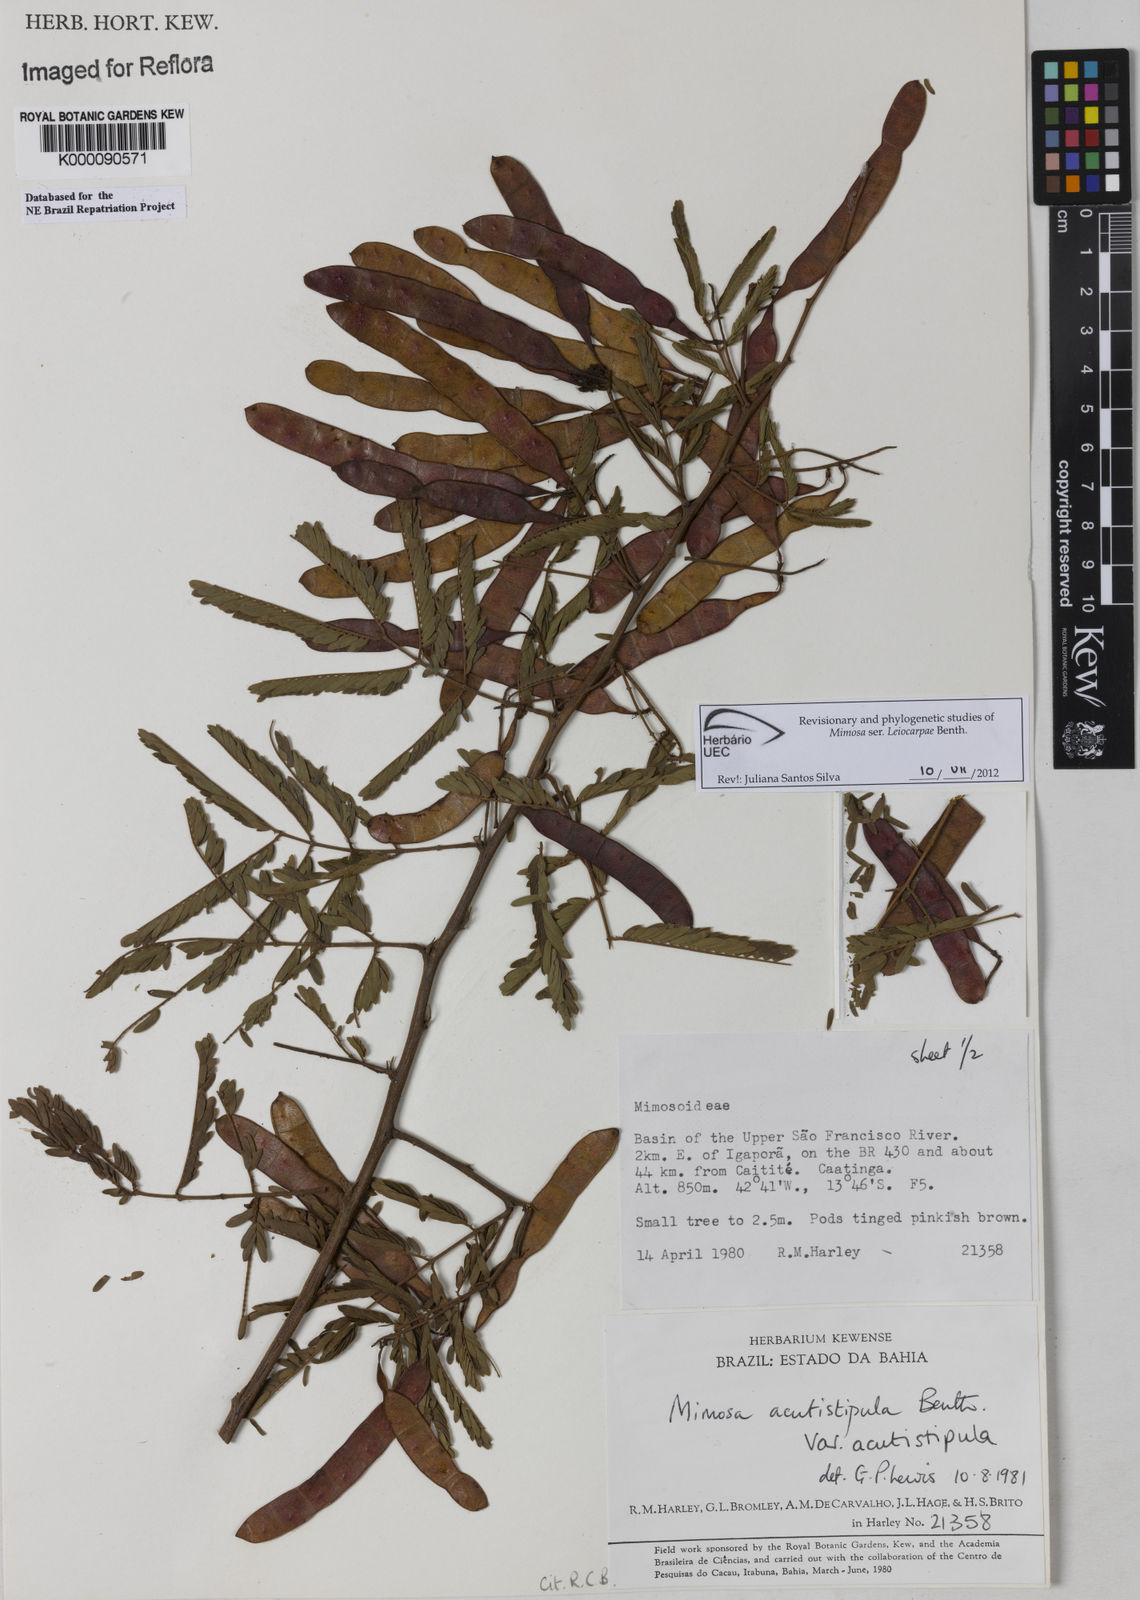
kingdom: Plantae
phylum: Tracheophyta
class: Magnoliopsida
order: Fabales
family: Fabaceae
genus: Mimosa
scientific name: Mimosa acutistipula
